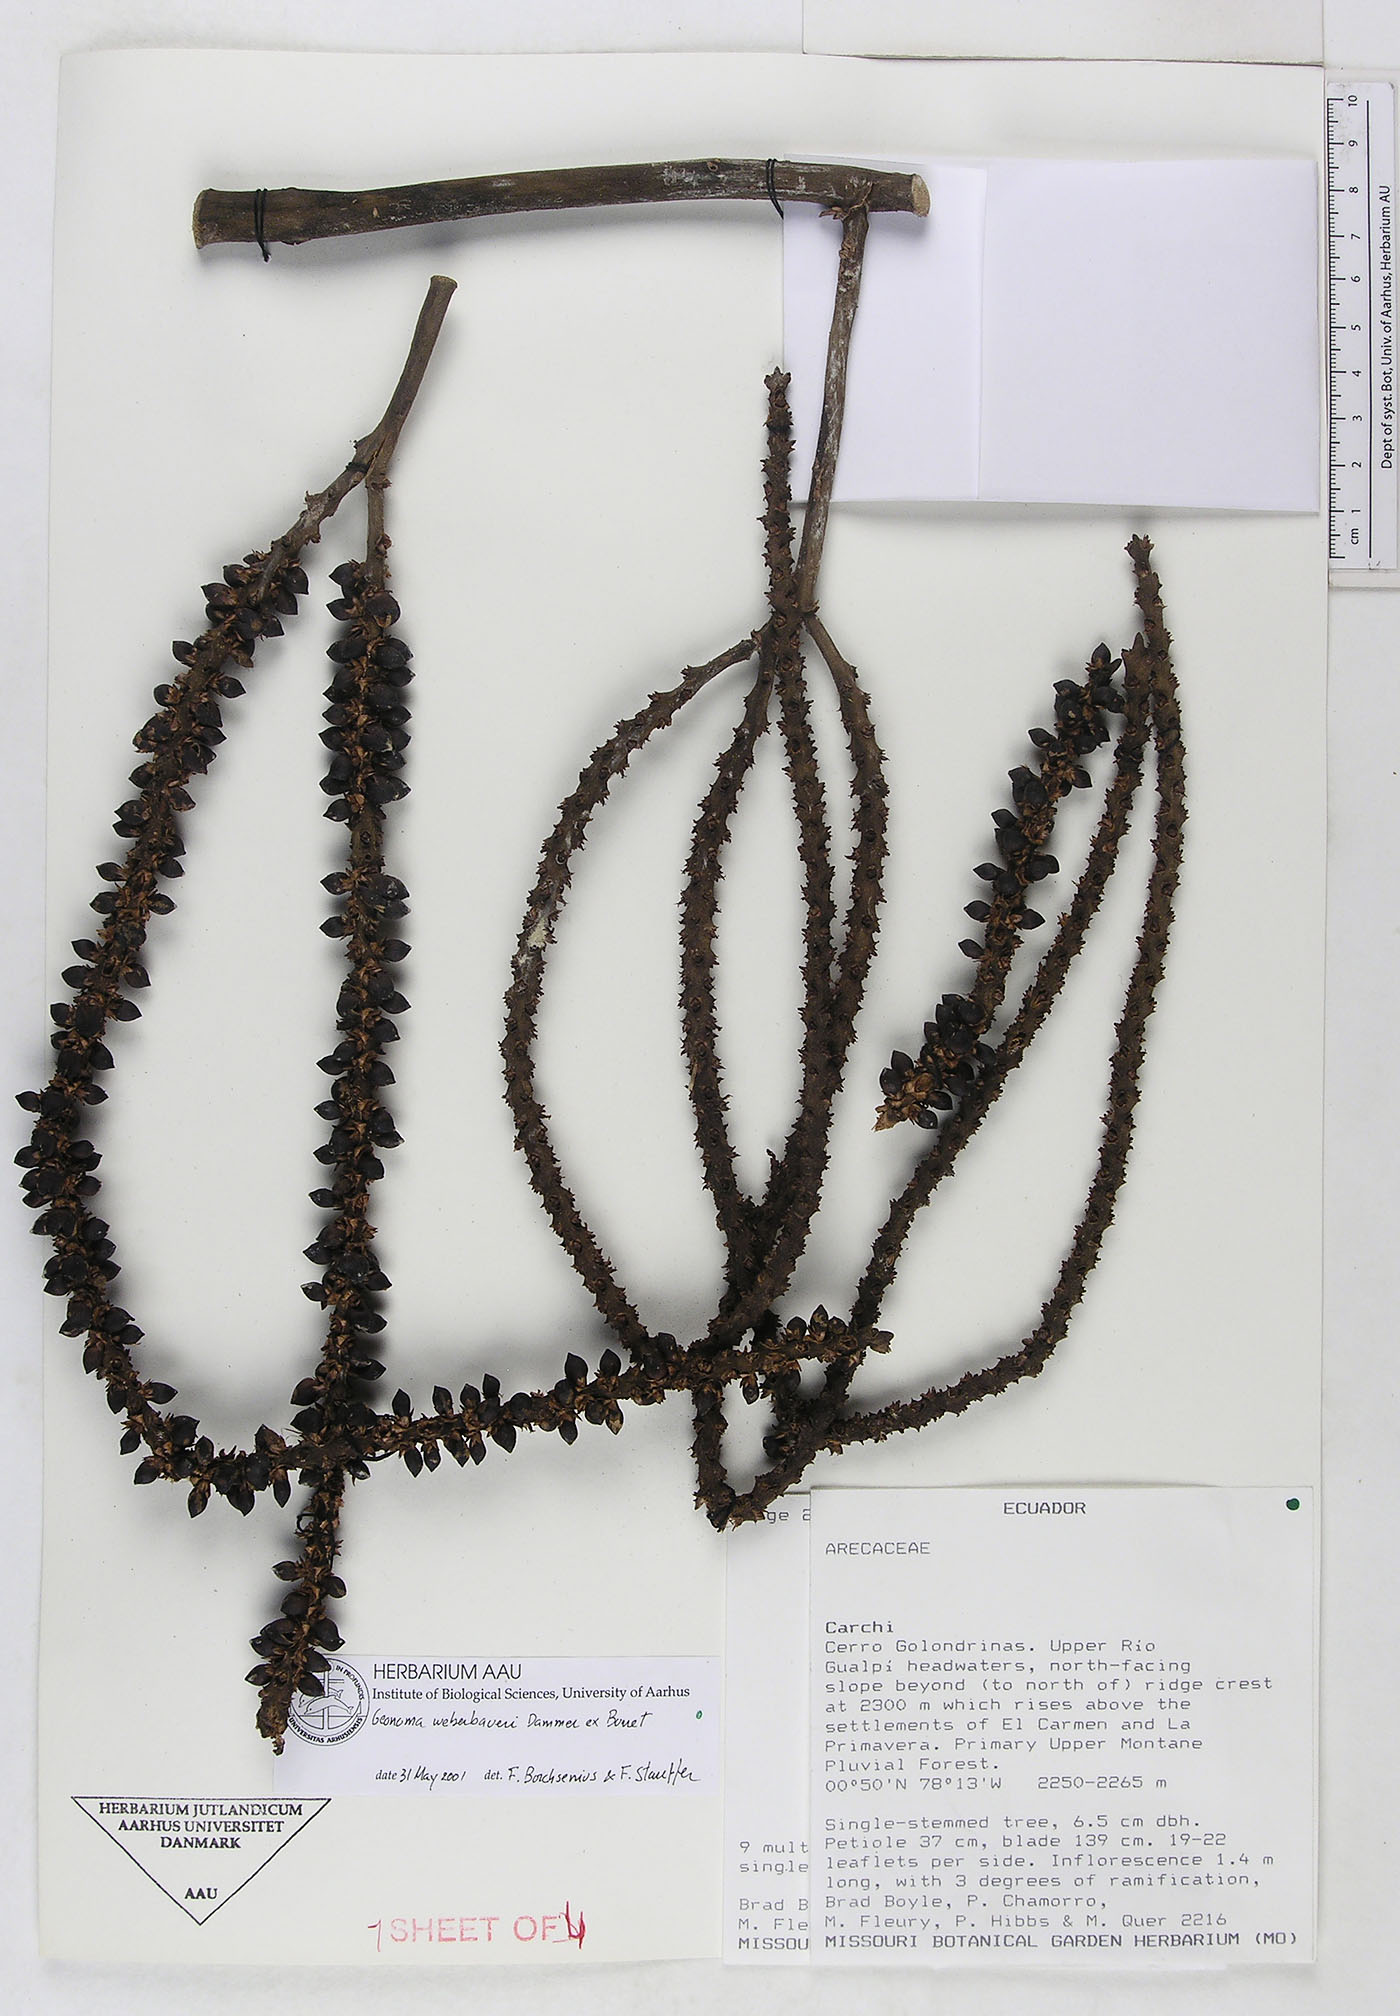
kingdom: Plantae
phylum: Tracheophyta
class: Liliopsida
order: Arecales
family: Arecaceae
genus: Geonoma
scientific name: Geonoma undata
